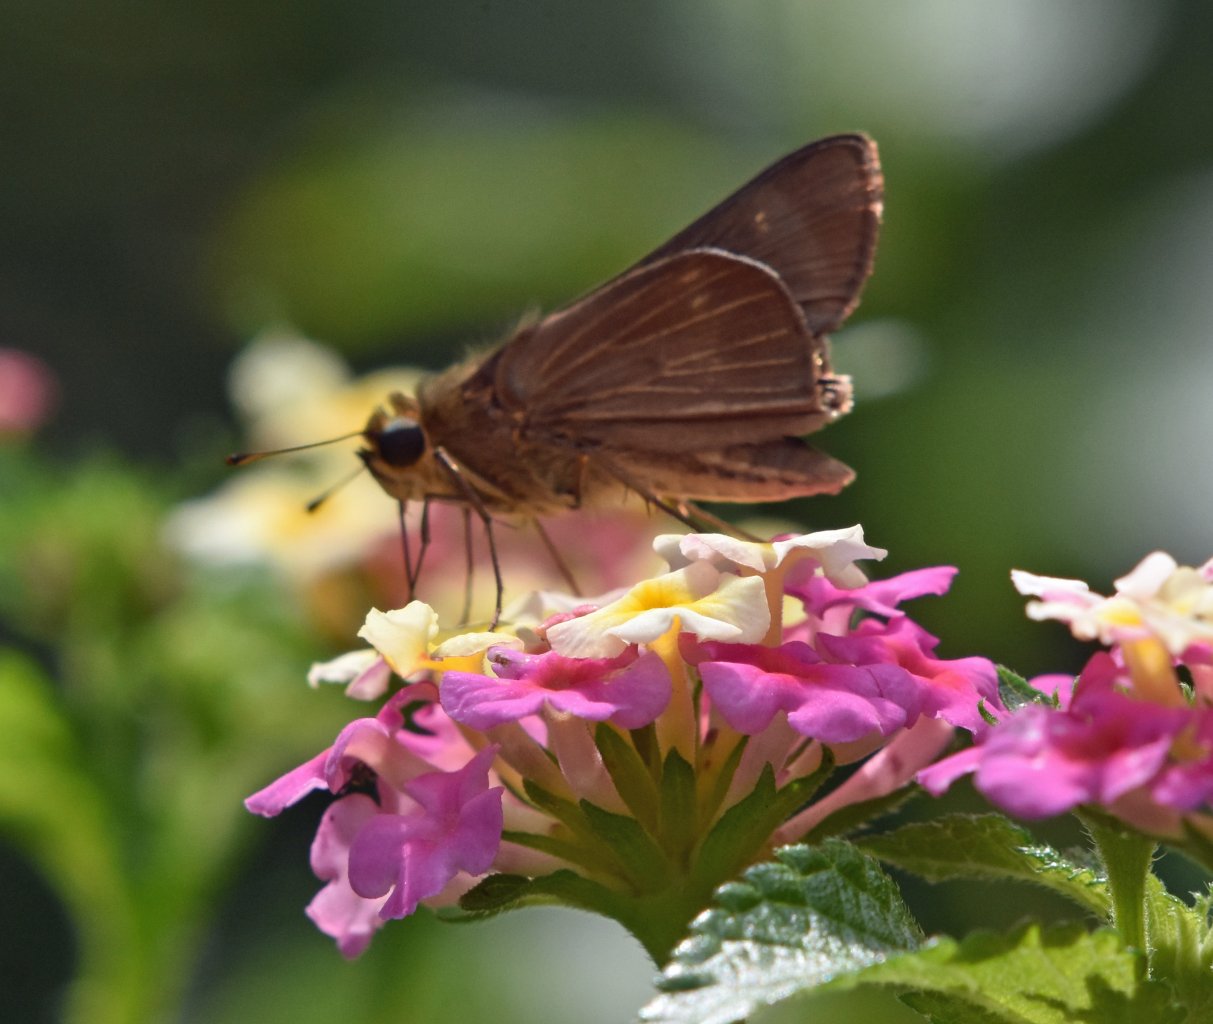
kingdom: Animalia
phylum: Arthropoda
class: Insecta
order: Lepidoptera
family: Hesperiidae
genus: Panoquina
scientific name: Panoquina ocola
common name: Ocola Skipper
